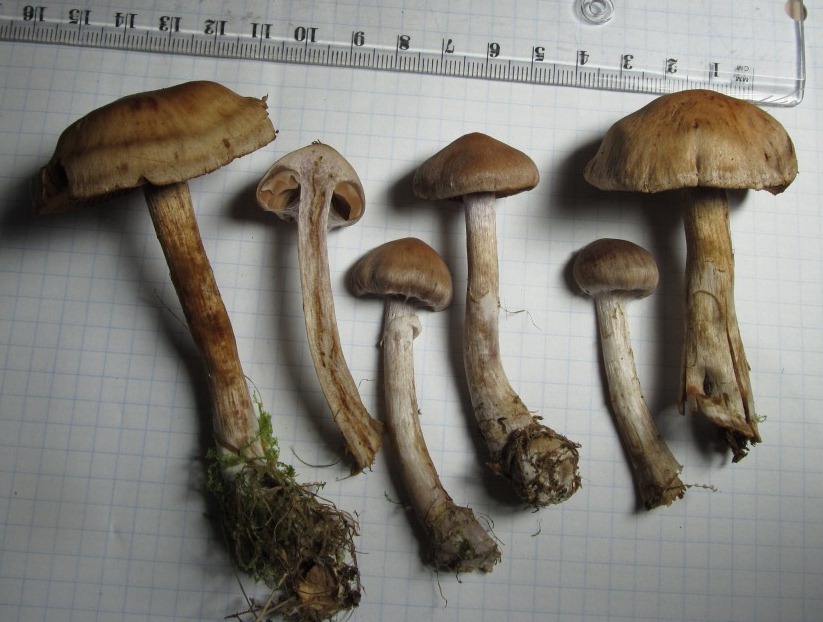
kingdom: Fungi
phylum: Basidiomycota
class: Agaricomycetes
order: Agaricales
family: Cortinariaceae
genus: Cortinarius
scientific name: Cortinarius aptecohaerens
